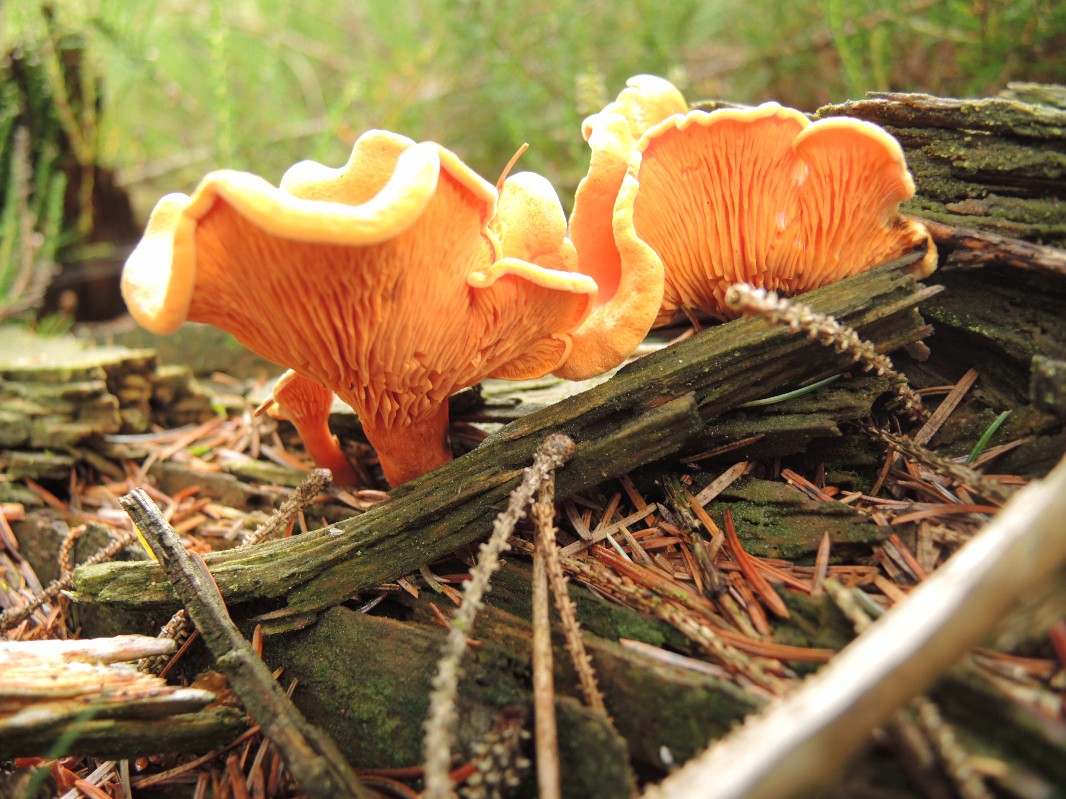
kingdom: Fungi
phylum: Basidiomycota
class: Agaricomycetes
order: Boletales
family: Hygrophoropsidaceae
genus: Hygrophoropsis
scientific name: Hygrophoropsis aurantiaca
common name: almindelig orangekantarel
